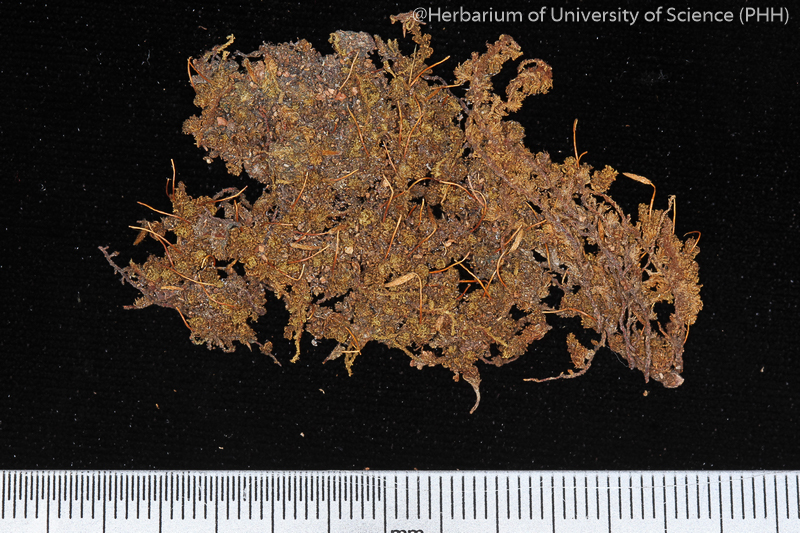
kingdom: Plantae
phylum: Bryophyta
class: Bryopsida
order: Orthotrichales
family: Orthotrichaceae
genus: Macromitrium
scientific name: Macromitrium japonicum
